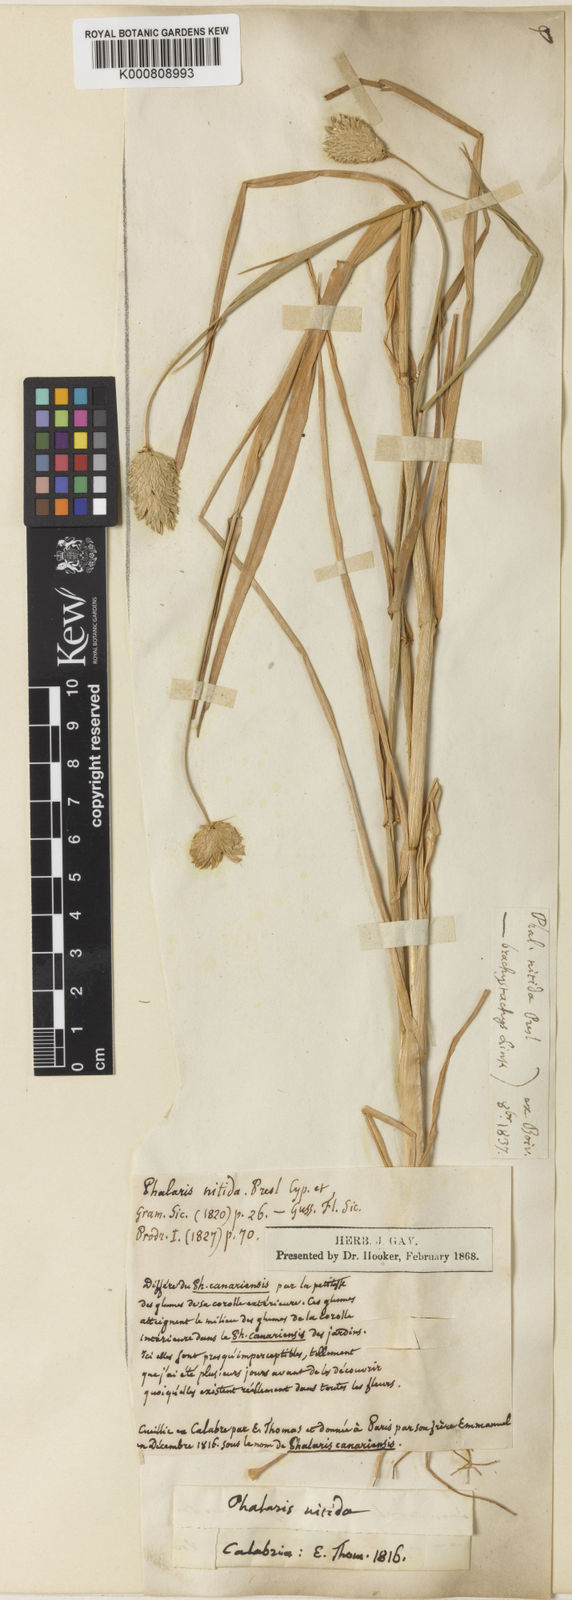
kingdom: Plantae
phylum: Tracheophyta
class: Liliopsida
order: Poales
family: Poaceae
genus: Phalaris
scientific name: Phalaris brachystachys
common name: Confused canary-grass
